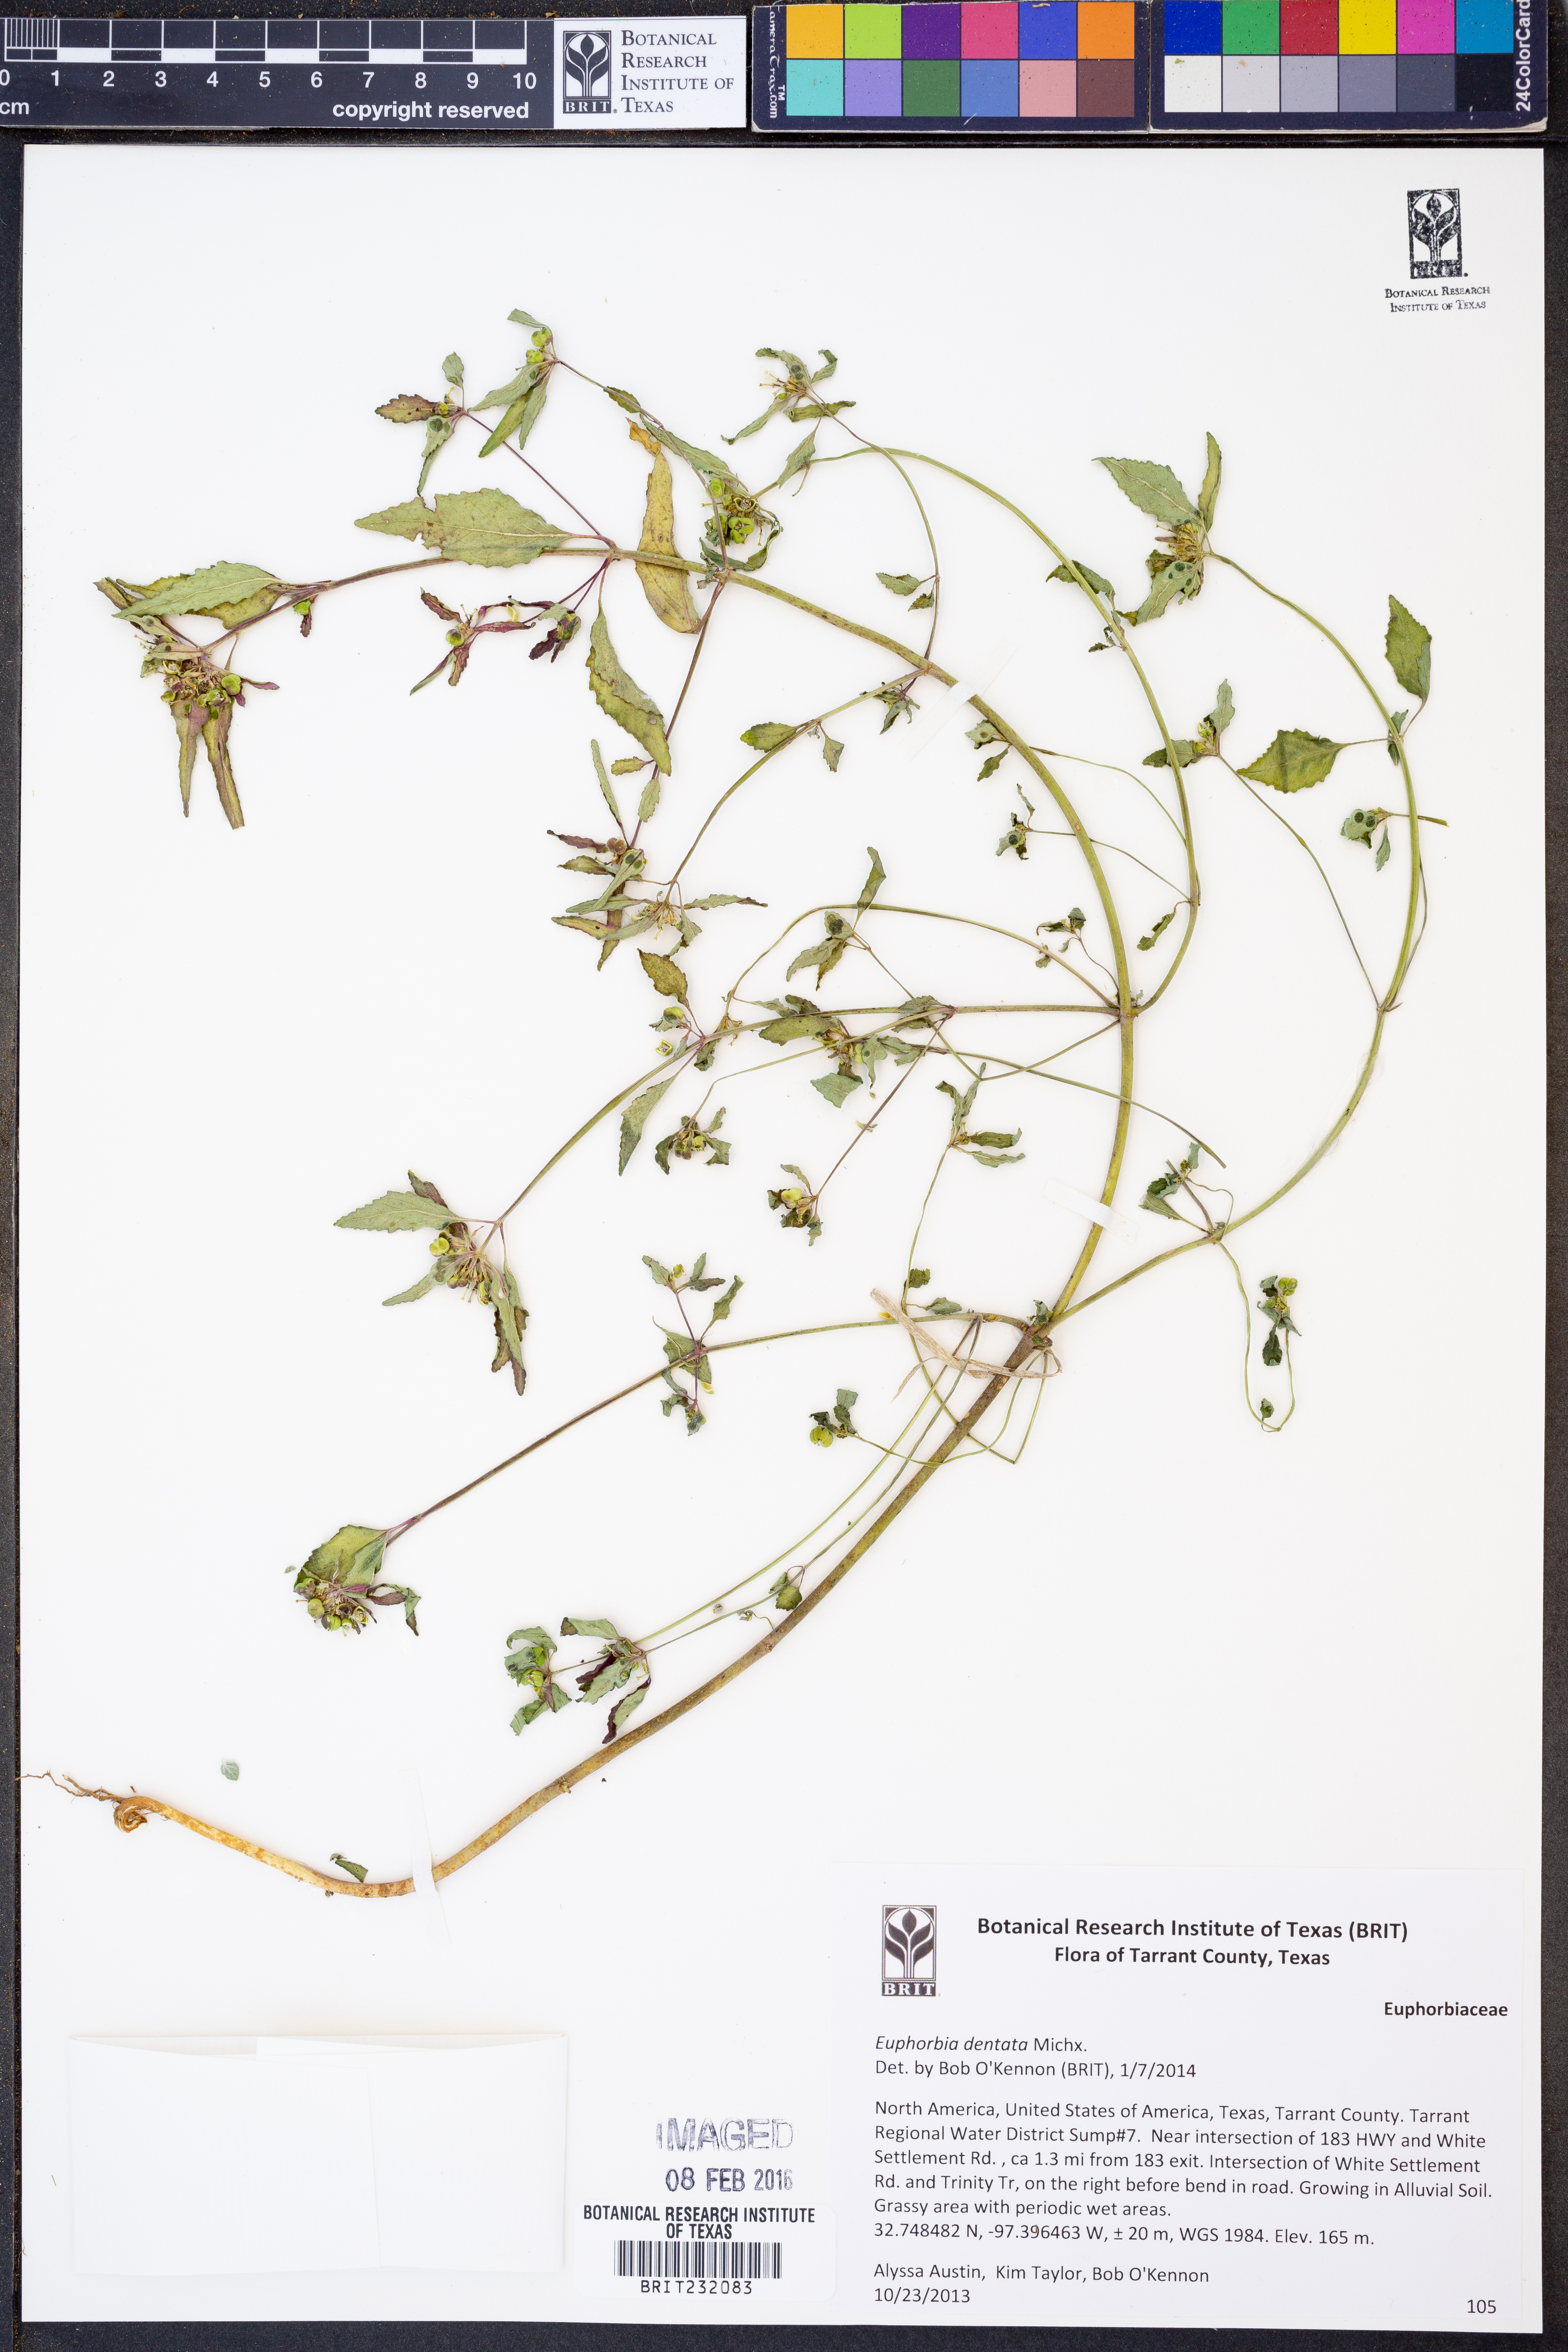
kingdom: Plantae
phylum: Tracheophyta
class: Magnoliopsida
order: Malpighiales
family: Euphorbiaceae
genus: Euphorbia
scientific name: Euphorbia dentata
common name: Dentate spurge
